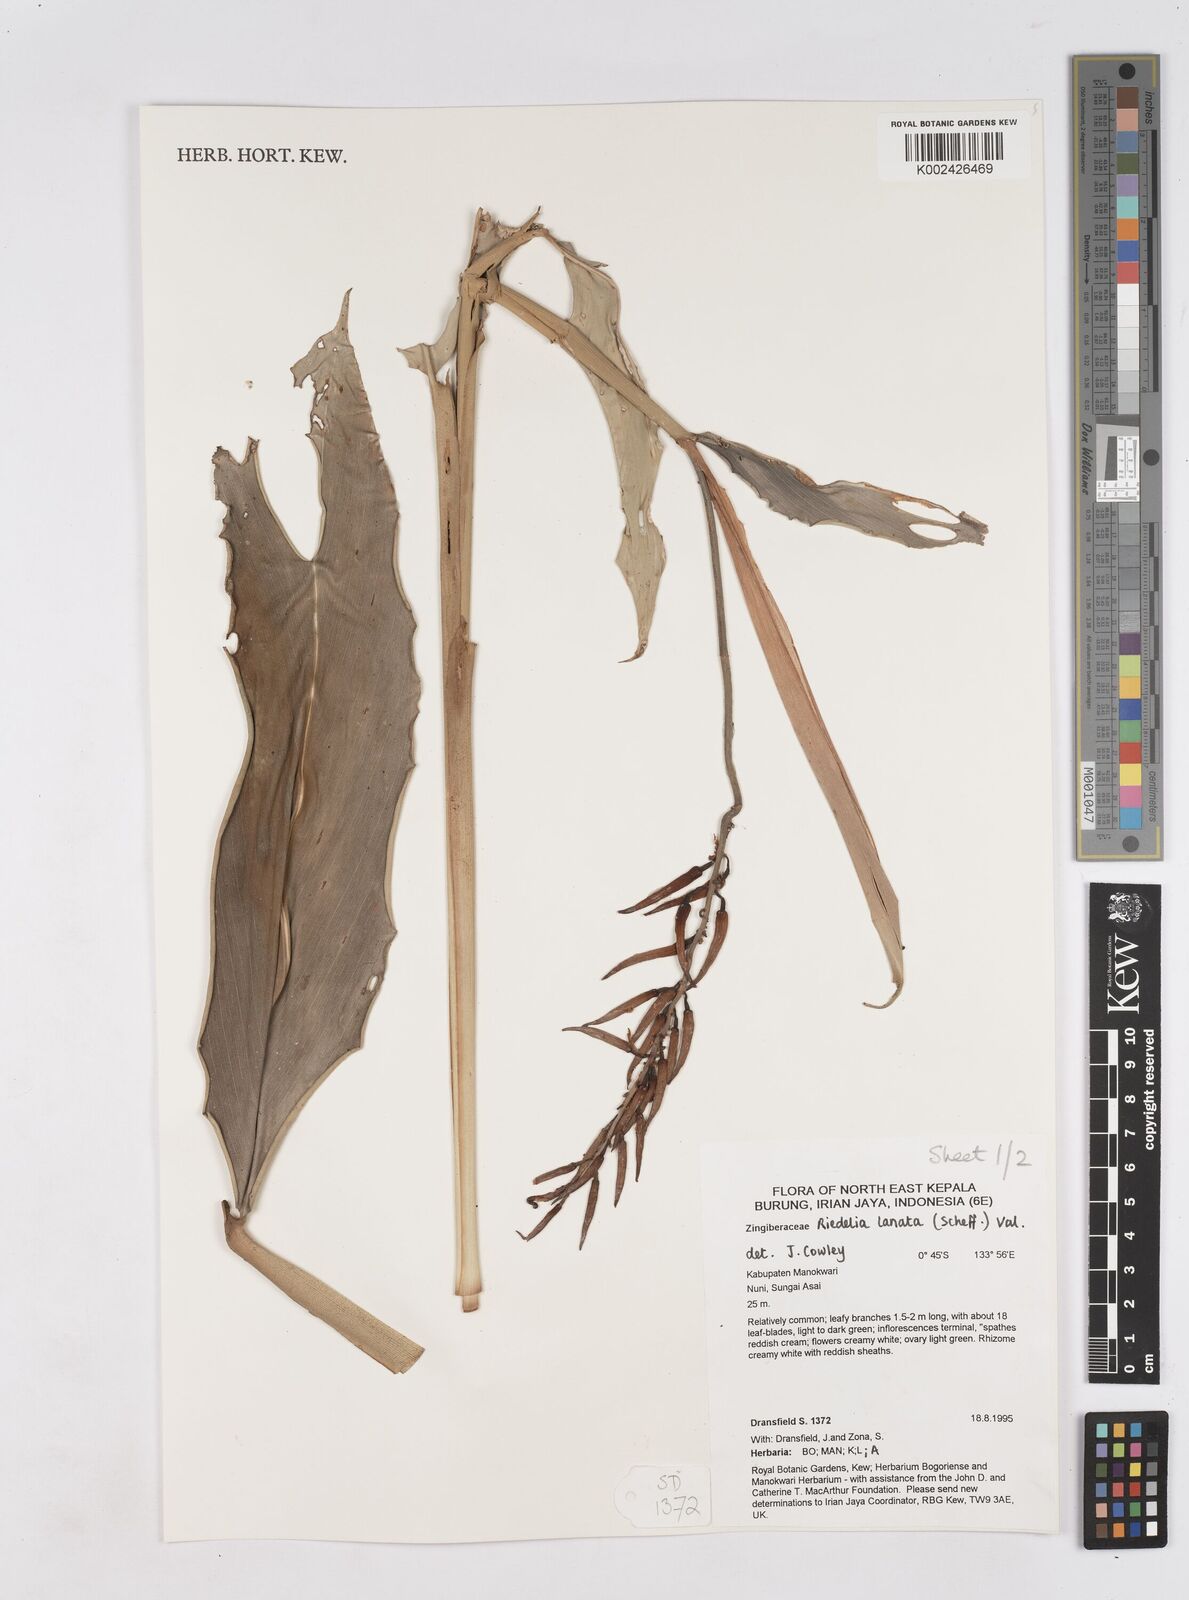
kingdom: Plantae
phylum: Tracheophyta
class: Liliopsida
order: Zingiberales
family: Zingiberaceae
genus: Riedelia
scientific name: Riedelia lanata
